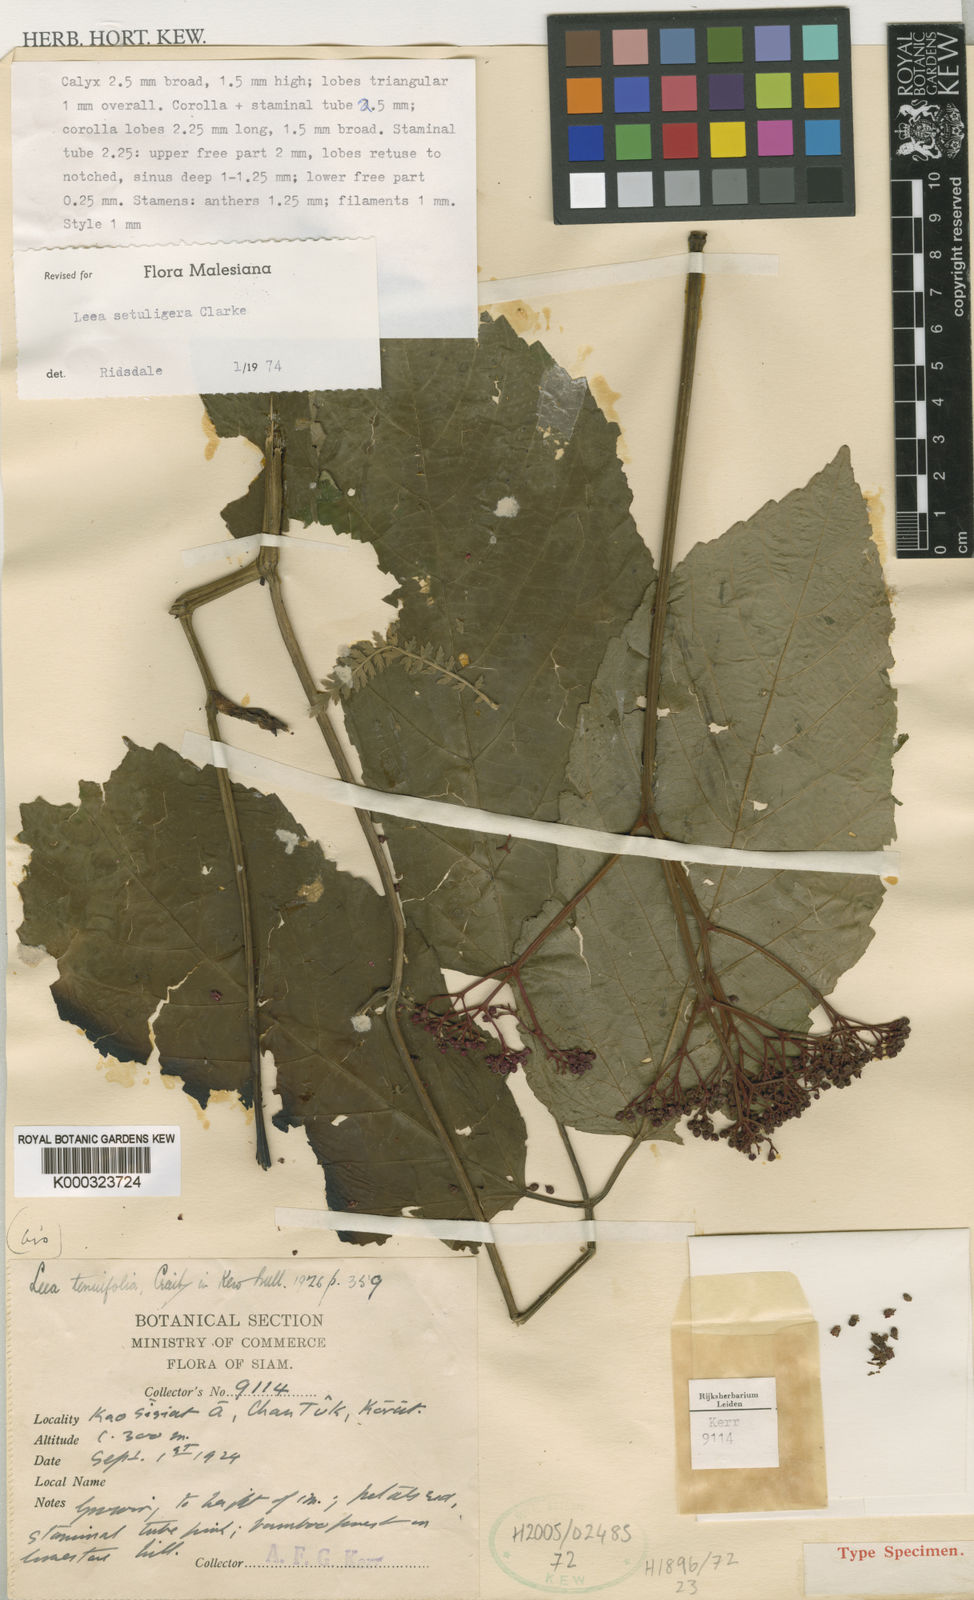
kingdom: Plantae
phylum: Tracheophyta
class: Magnoliopsida
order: Vitales
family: Vitaceae
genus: Leea
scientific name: Leea setuligera
